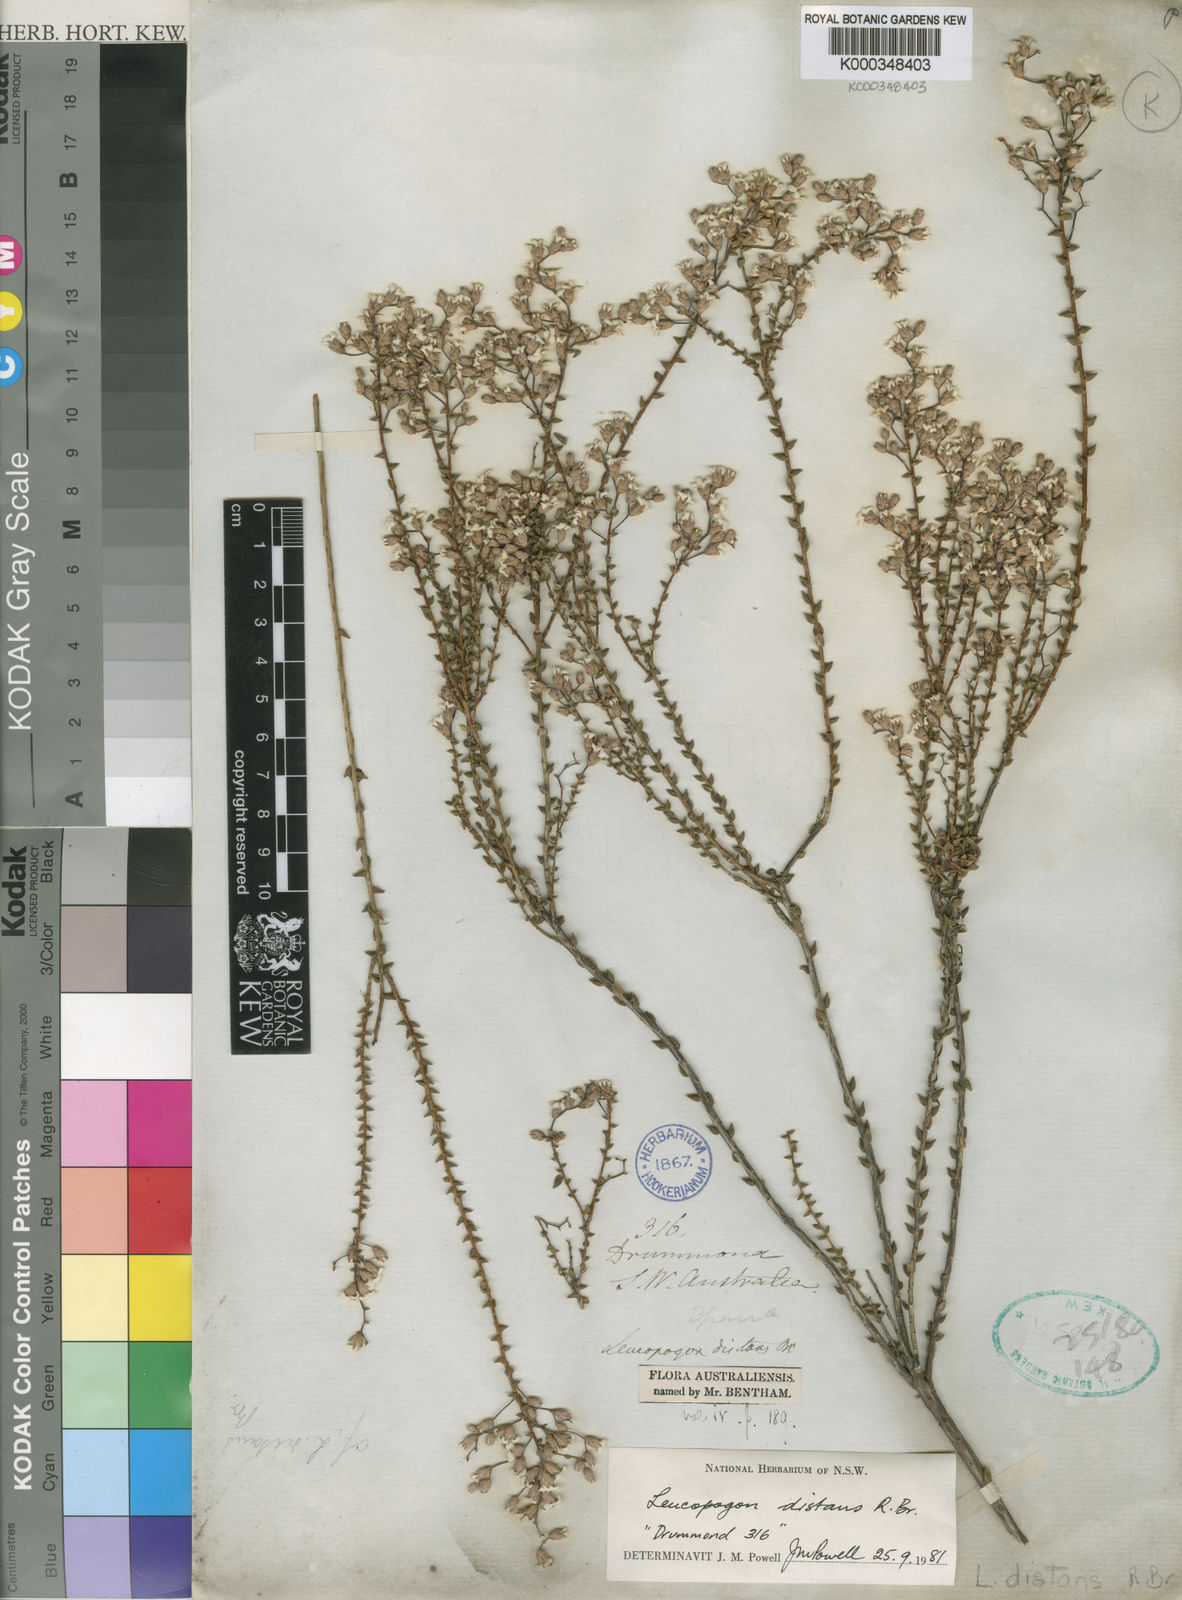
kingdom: Plantae
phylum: Tracheophyta
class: Magnoliopsida
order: Ericales
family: Ericaceae
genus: Leucopogon
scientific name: Leucopogon distans
